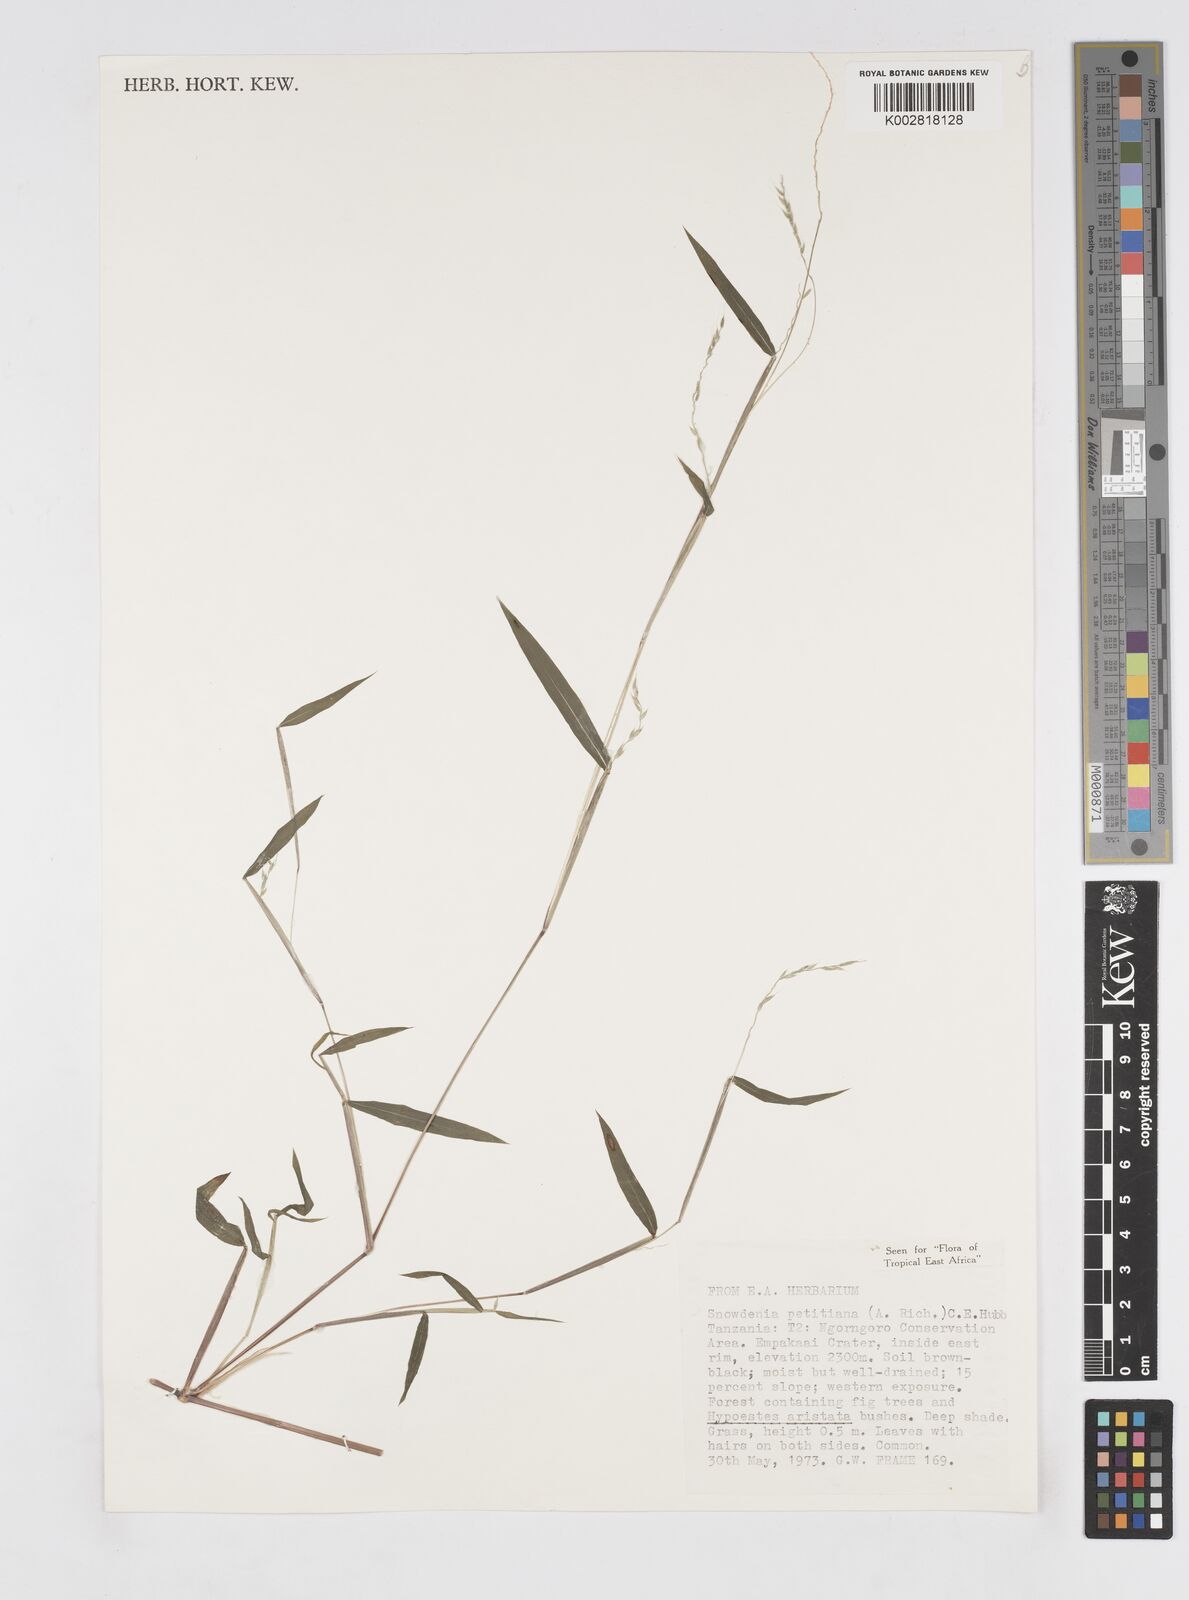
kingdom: Plantae
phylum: Tracheophyta
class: Liliopsida
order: Poales
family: Poaceae
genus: Snowdenia
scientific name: Snowdenia petitiana
